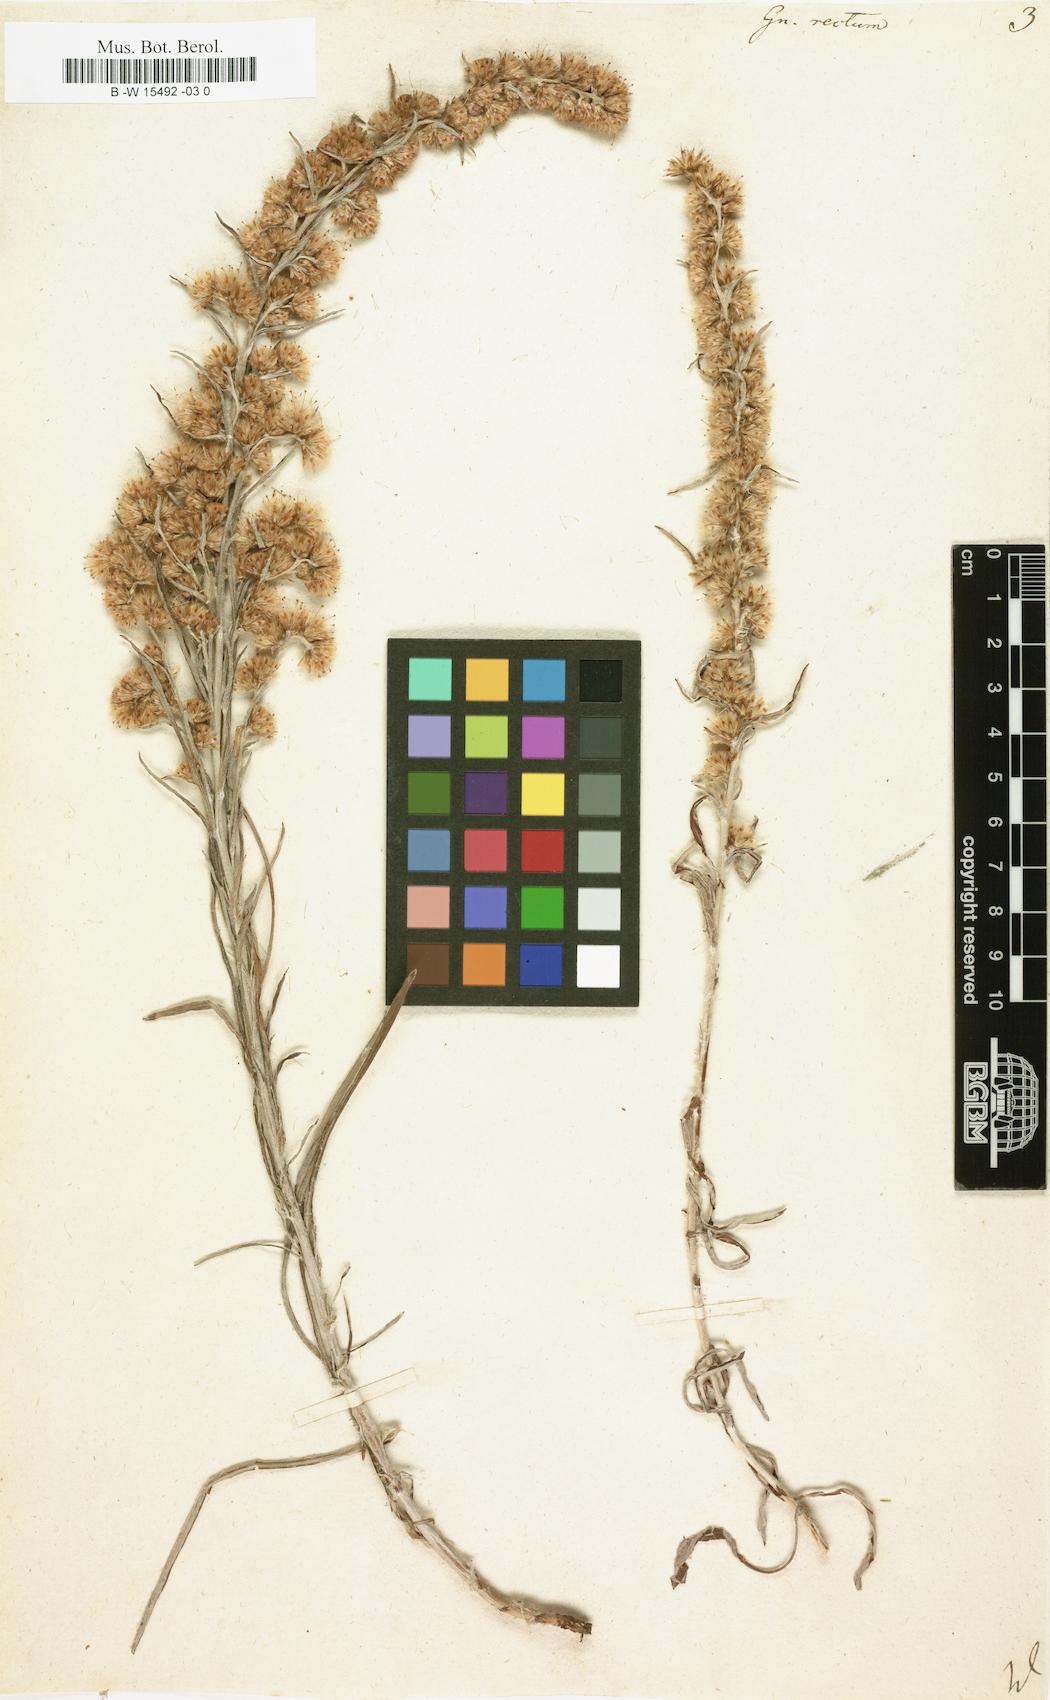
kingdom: Plantae
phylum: Tracheophyta
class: Magnoliopsida
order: Asterales
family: Asteraceae
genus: Omalotheca
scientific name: Omalotheca
